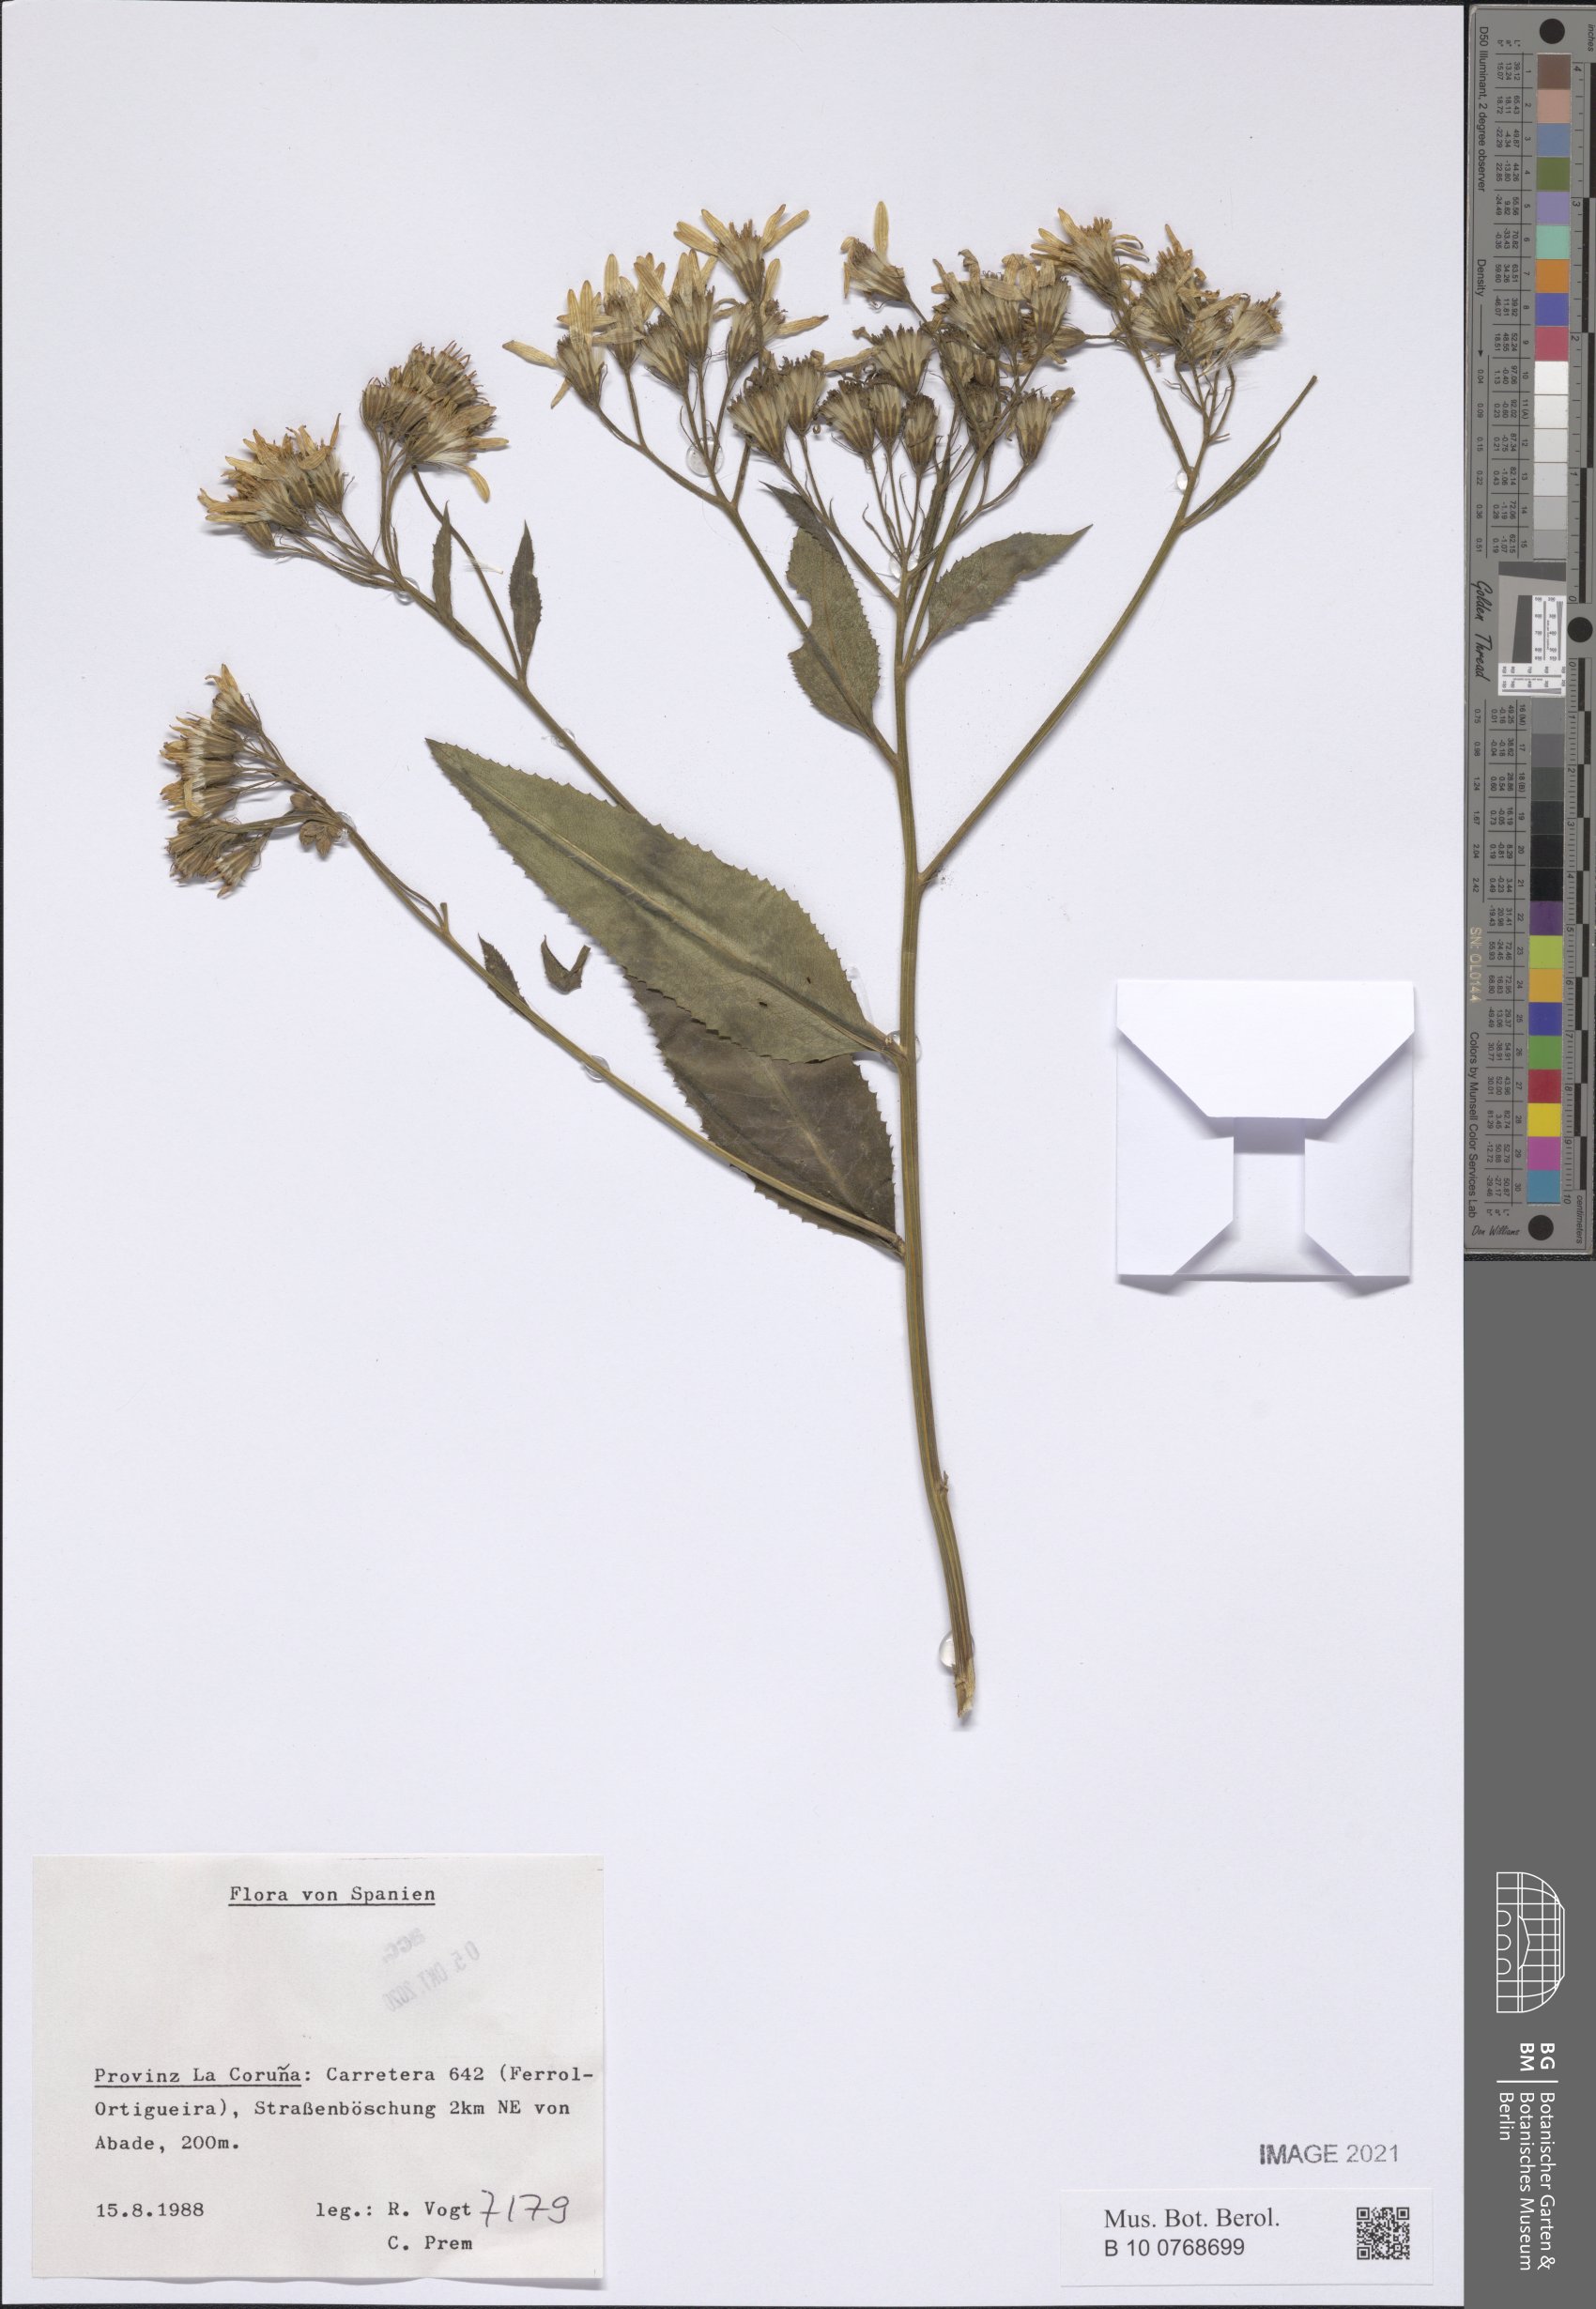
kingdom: Plantae
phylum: Tracheophyta
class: Magnoliopsida
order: Asterales
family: Asteraceae
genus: Senecio
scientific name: Senecio
